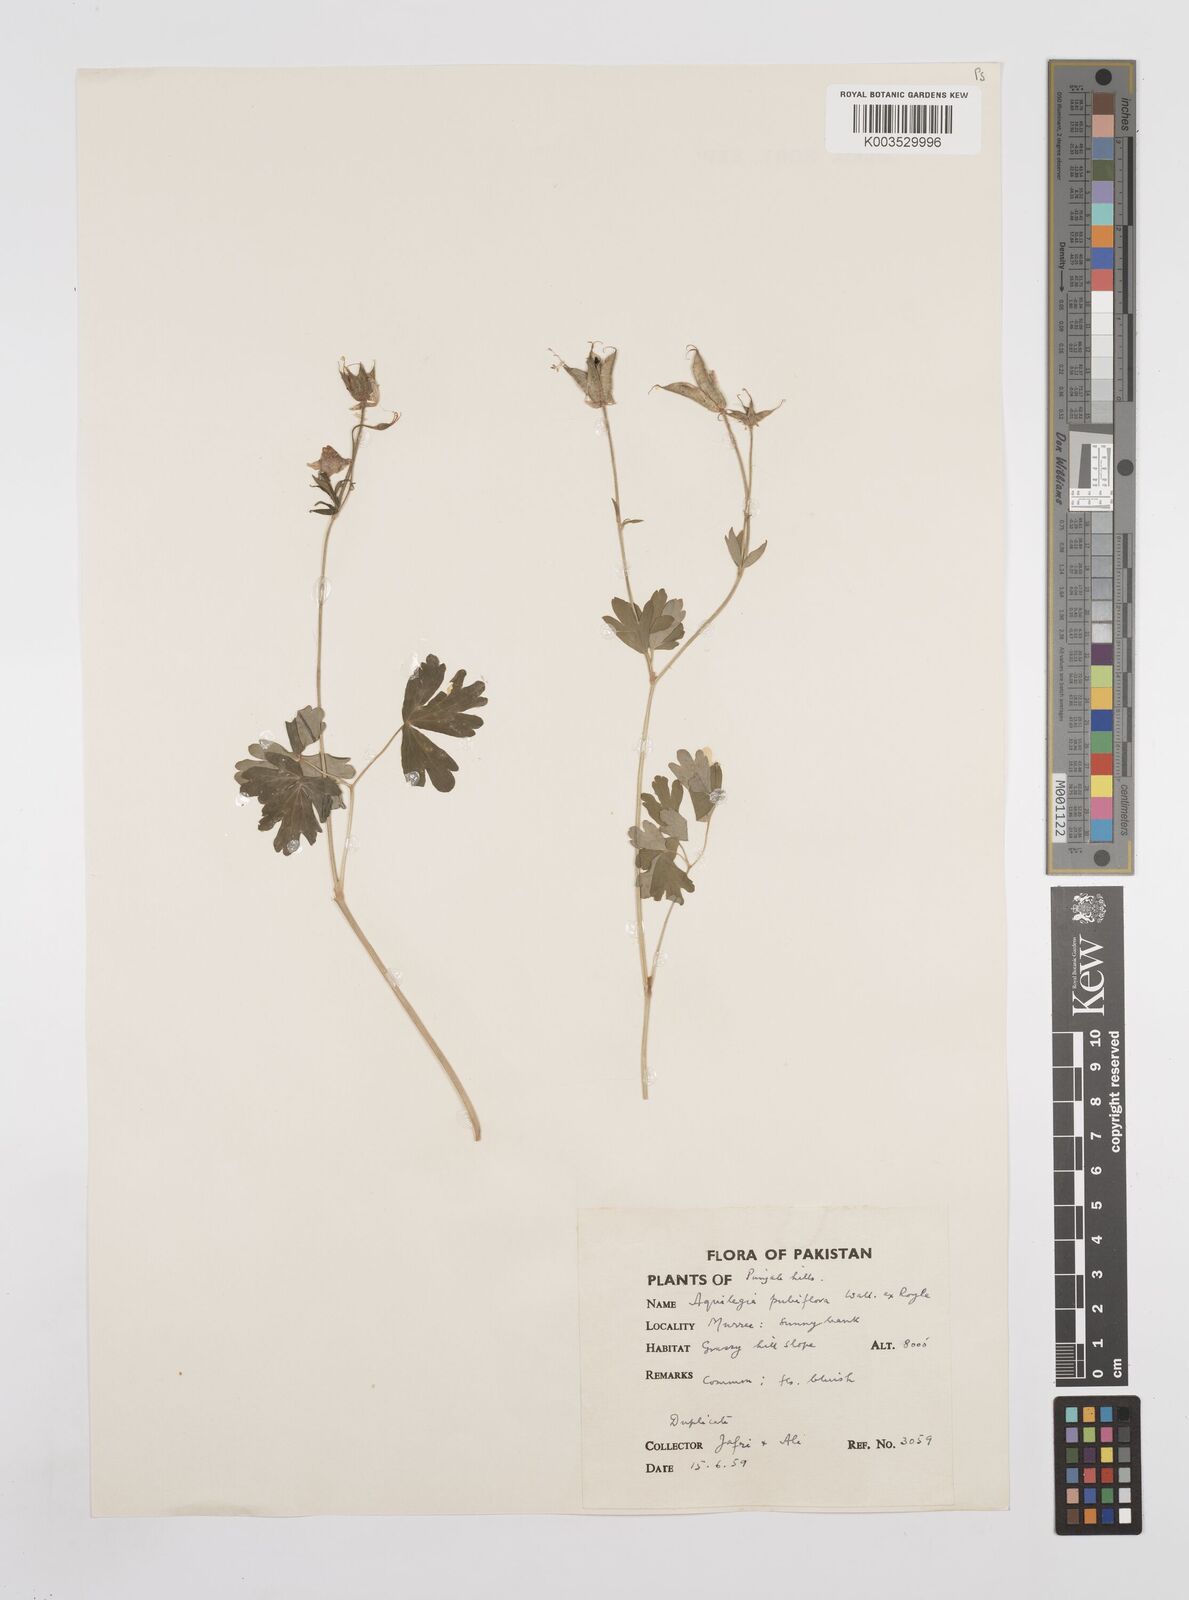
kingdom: Plantae
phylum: Tracheophyta
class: Magnoliopsida
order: Ranunculales
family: Ranunculaceae
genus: Aquilegia
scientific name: Aquilegia pubiflora
